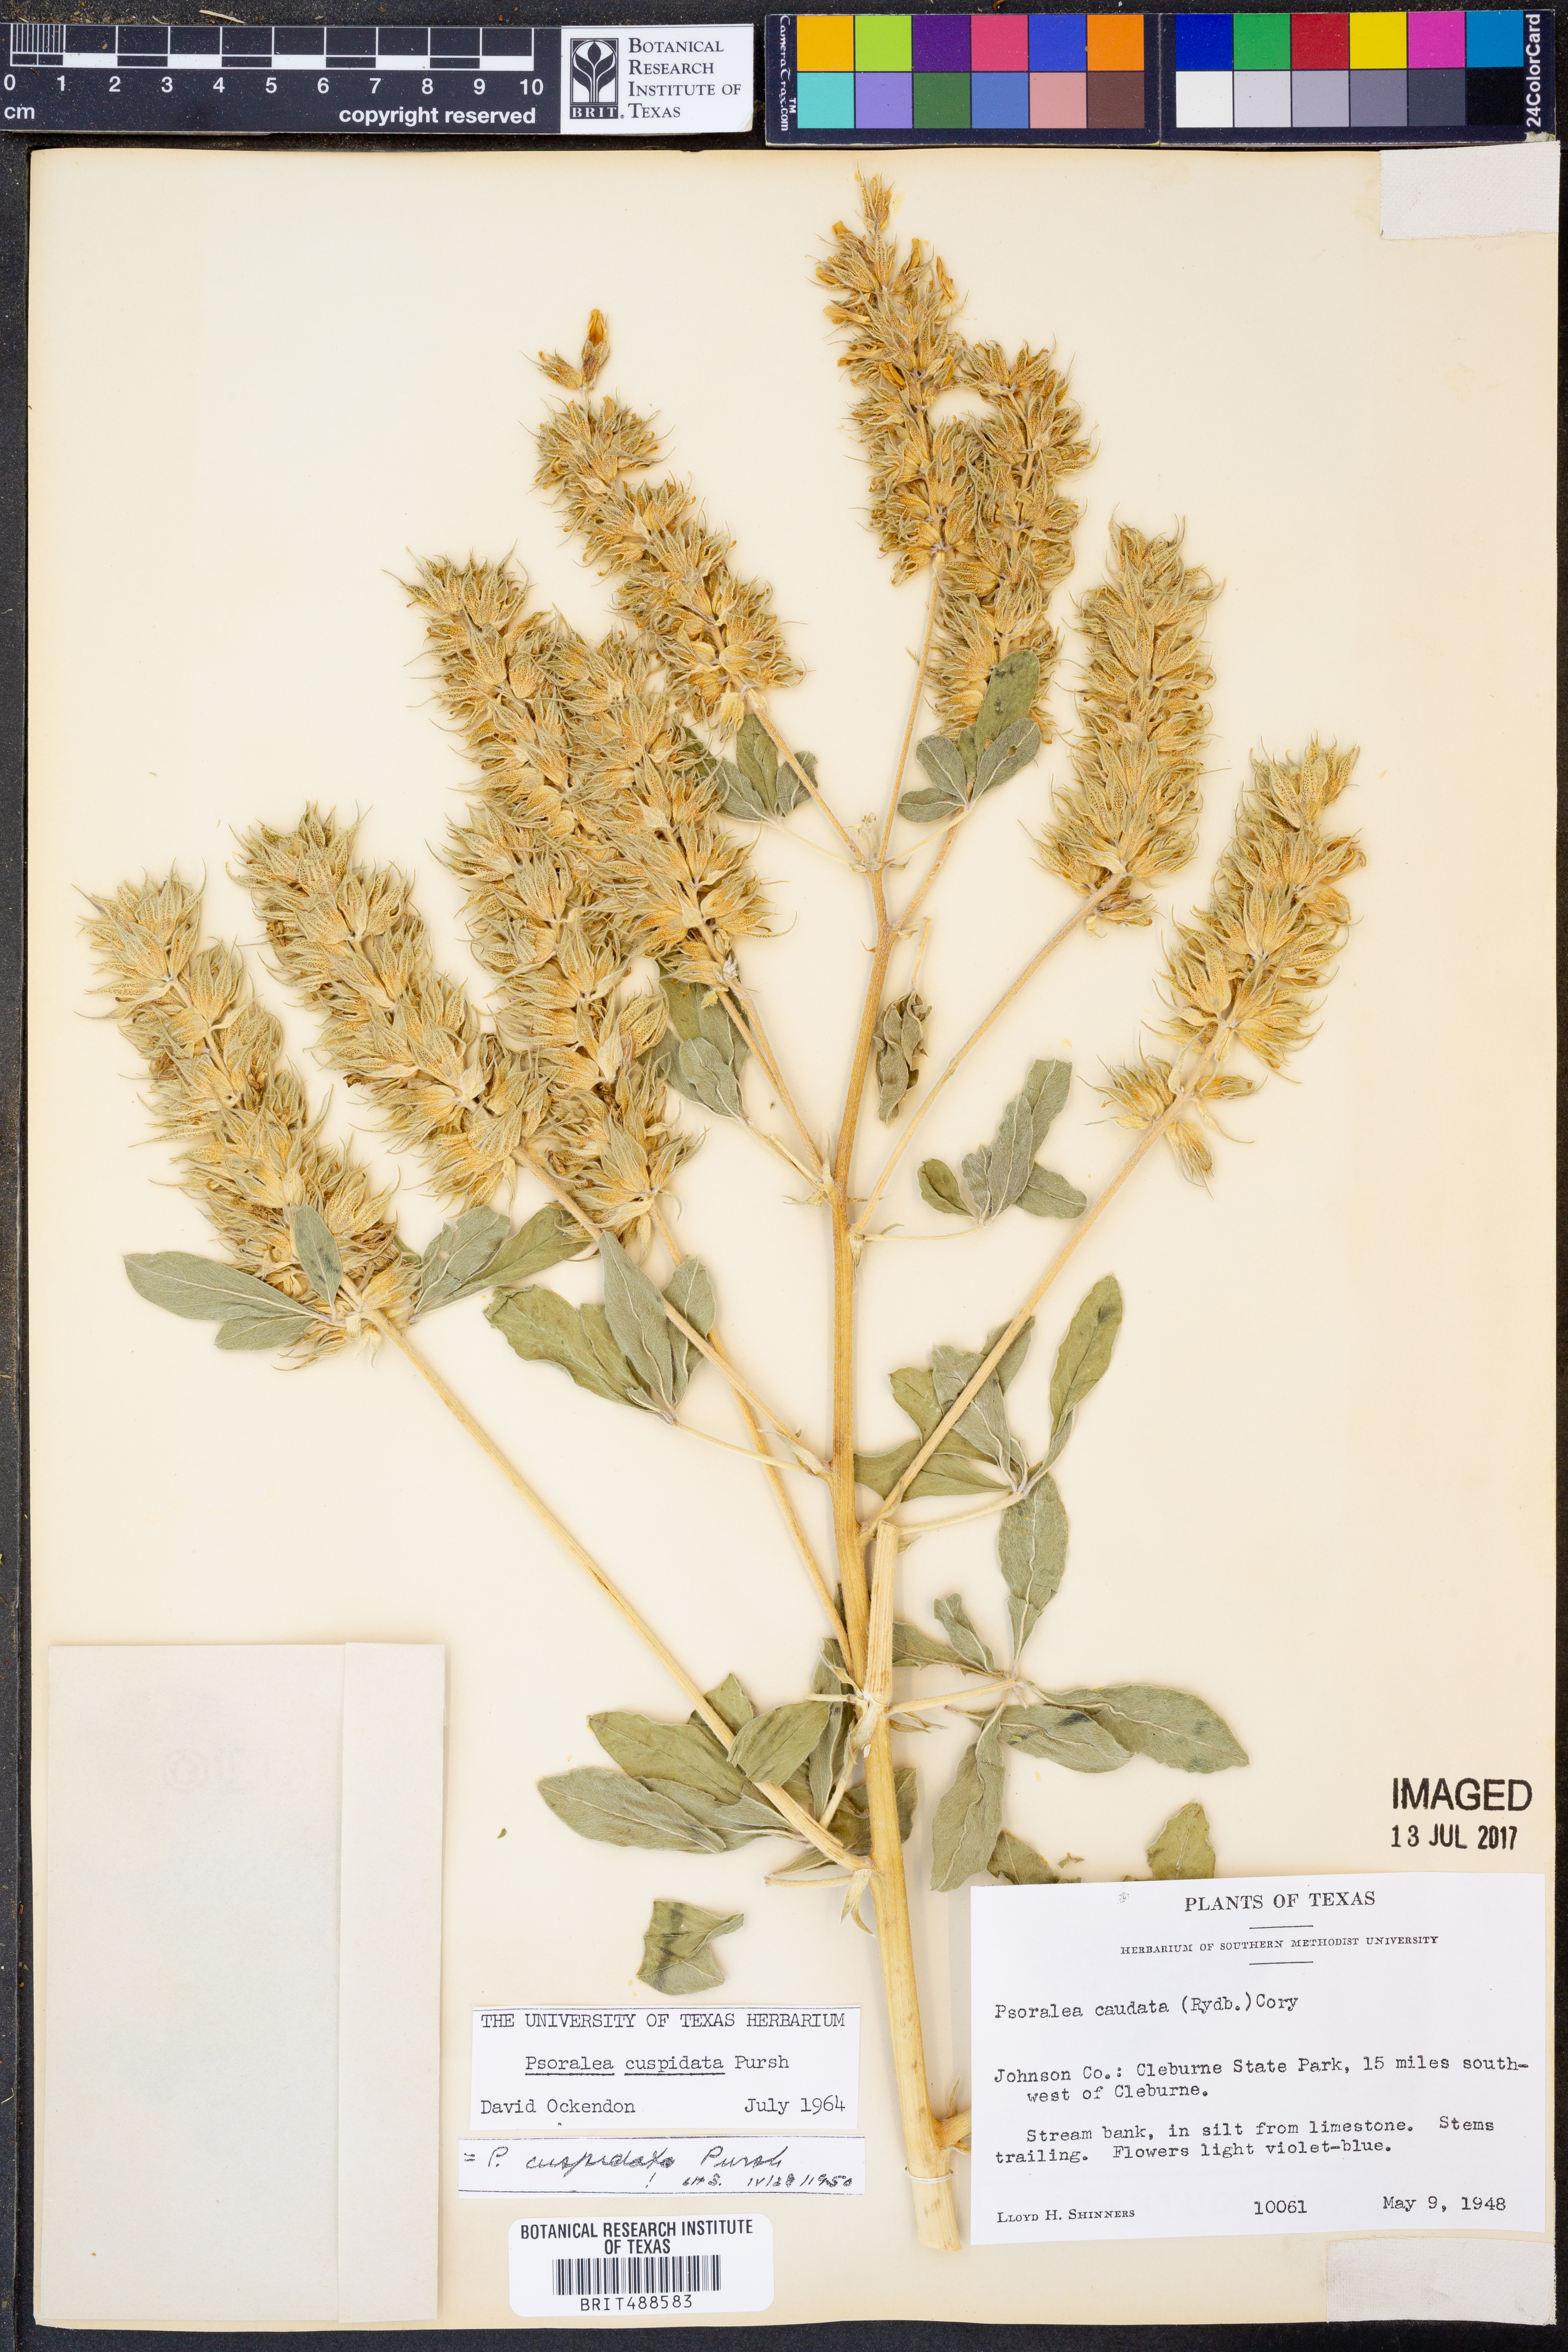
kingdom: Plantae
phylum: Tracheophyta
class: Magnoliopsida
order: Fabales
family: Fabaceae
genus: Pediomelum
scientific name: Pediomelum cuspidatum
